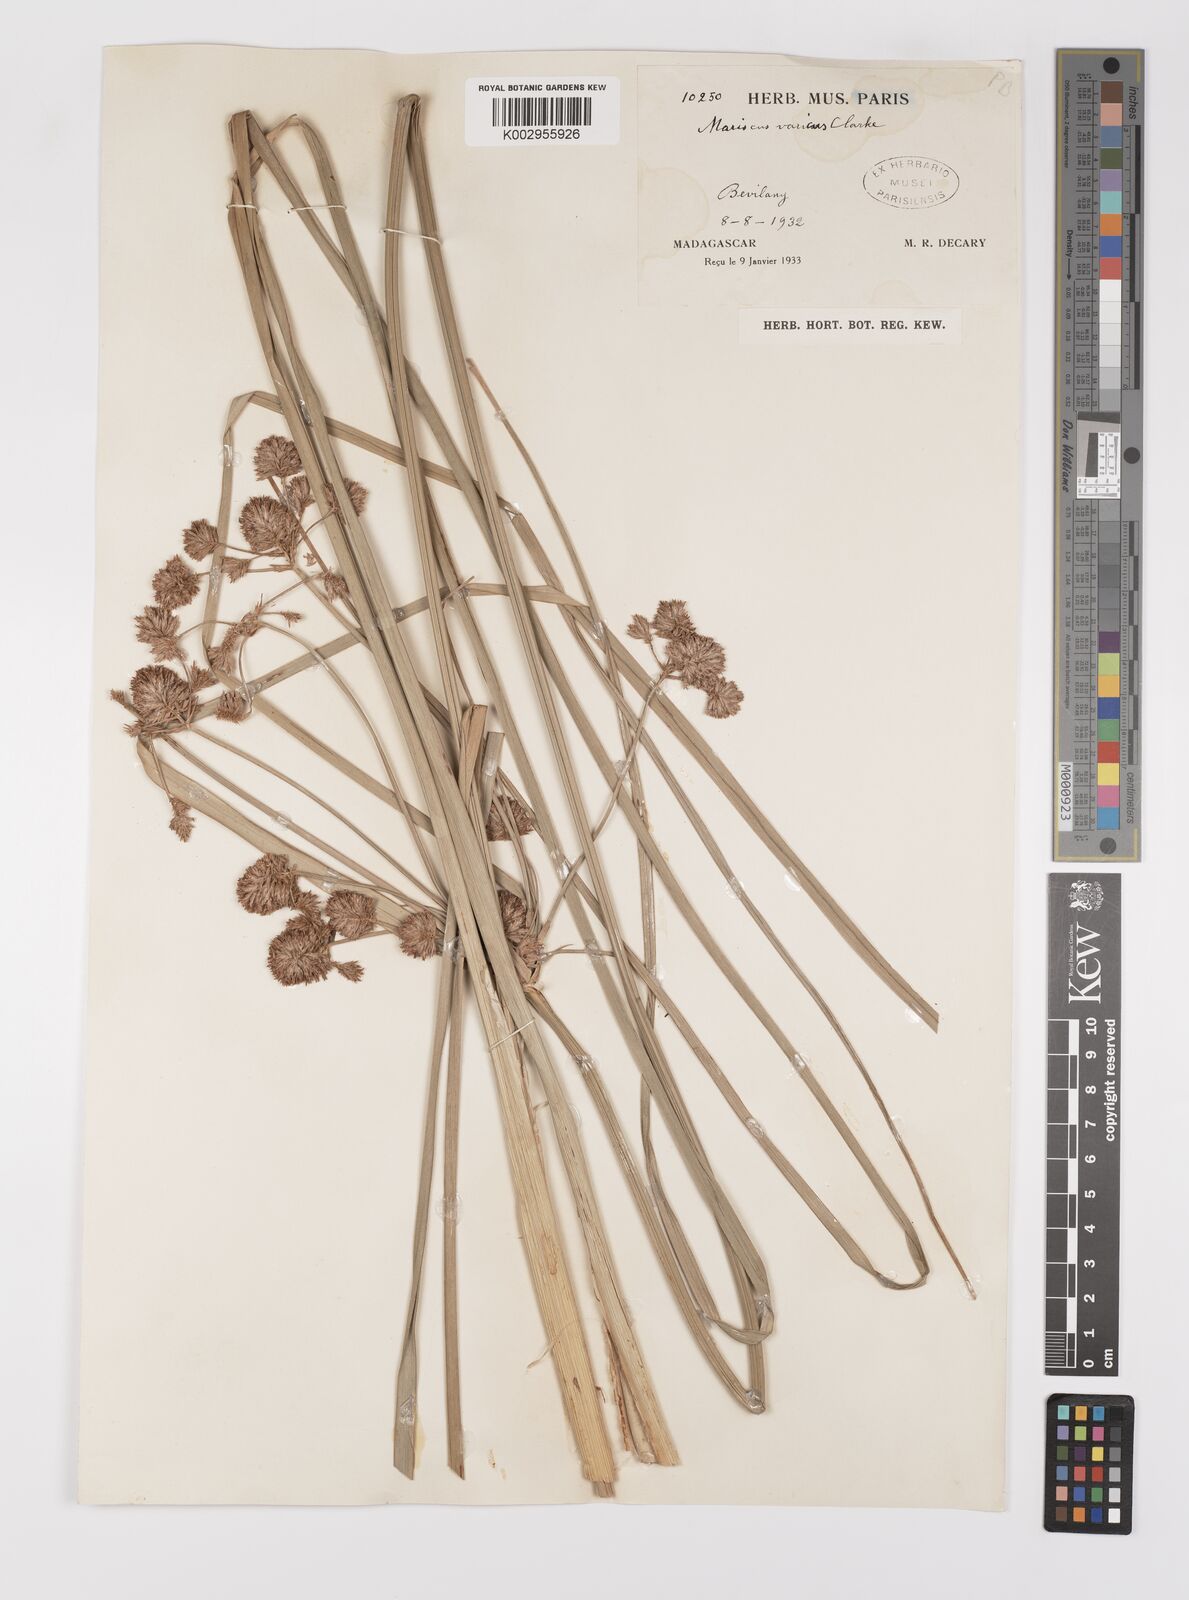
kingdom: Plantae
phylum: Tracheophyta
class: Liliopsida
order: Poales
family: Cyperaceae
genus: Cyperus
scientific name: Cyperus varicus
